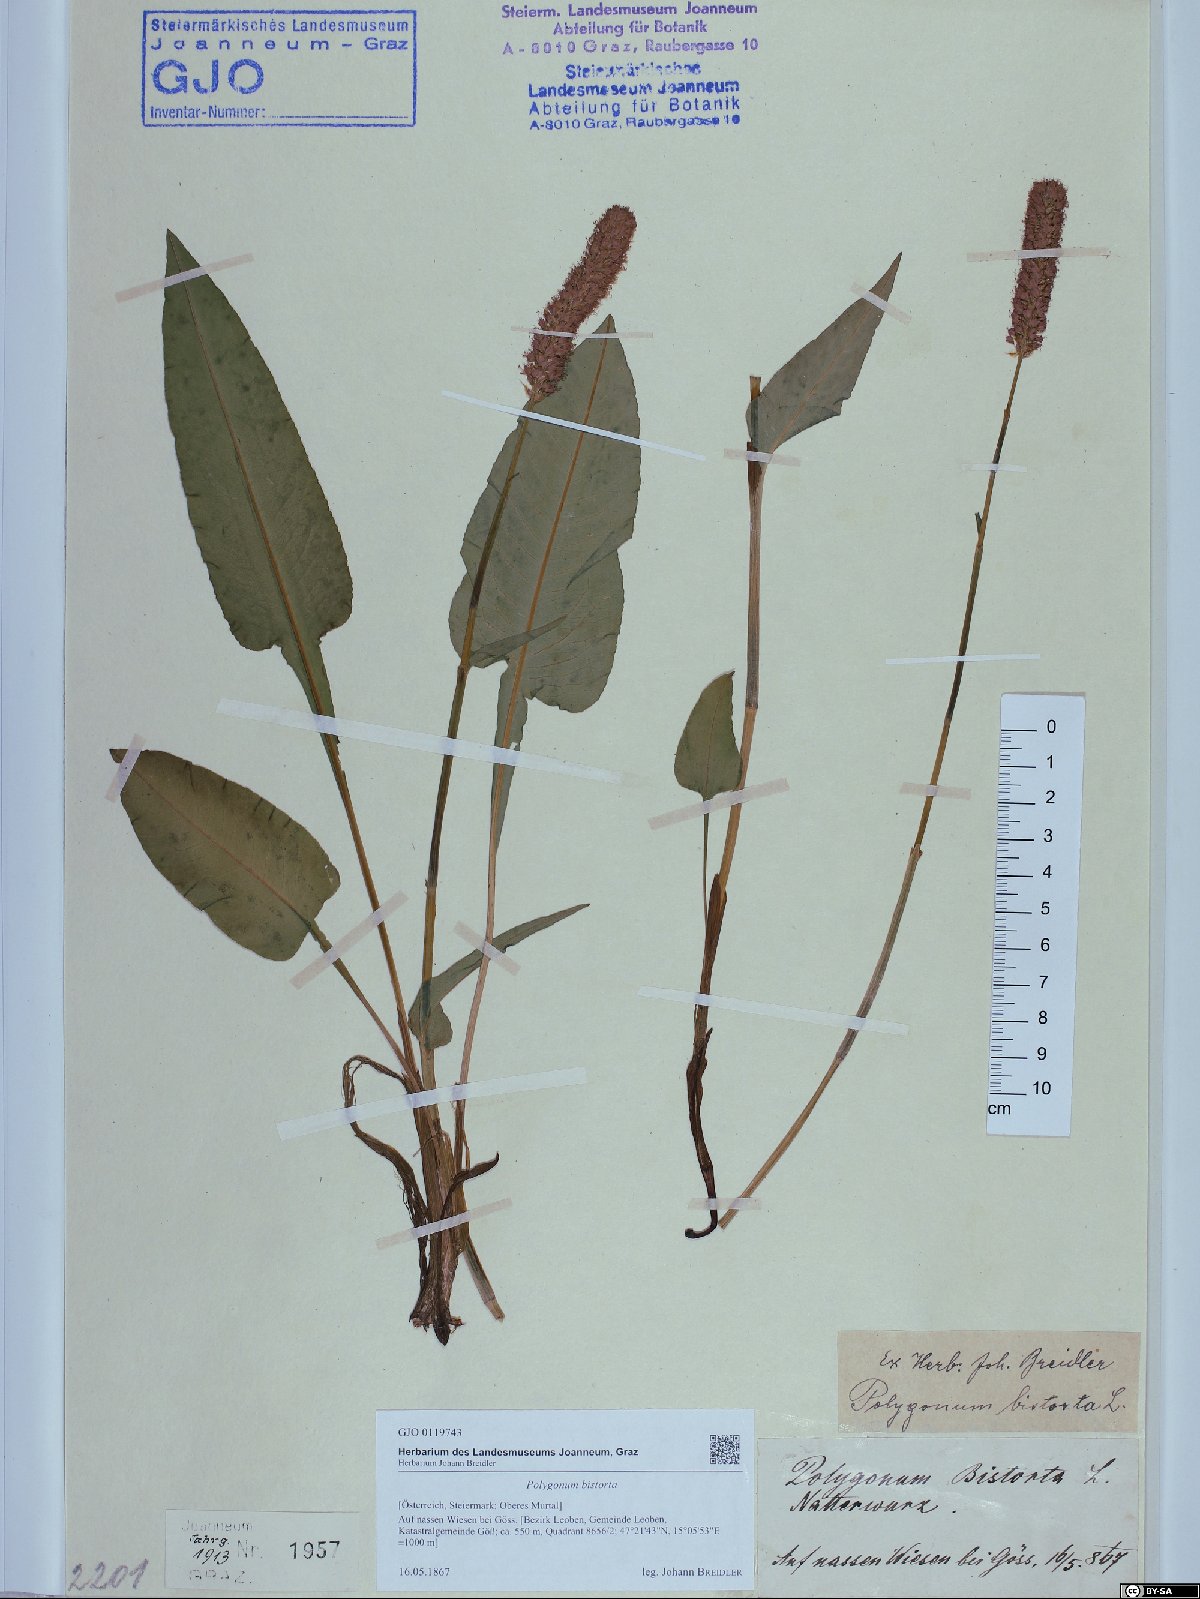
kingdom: Plantae
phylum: Tracheophyta
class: Magnoliopsida
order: Caryophyllales
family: Polygonaceae
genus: Bistorta
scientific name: Bistorta officinalis
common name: Common bistort
